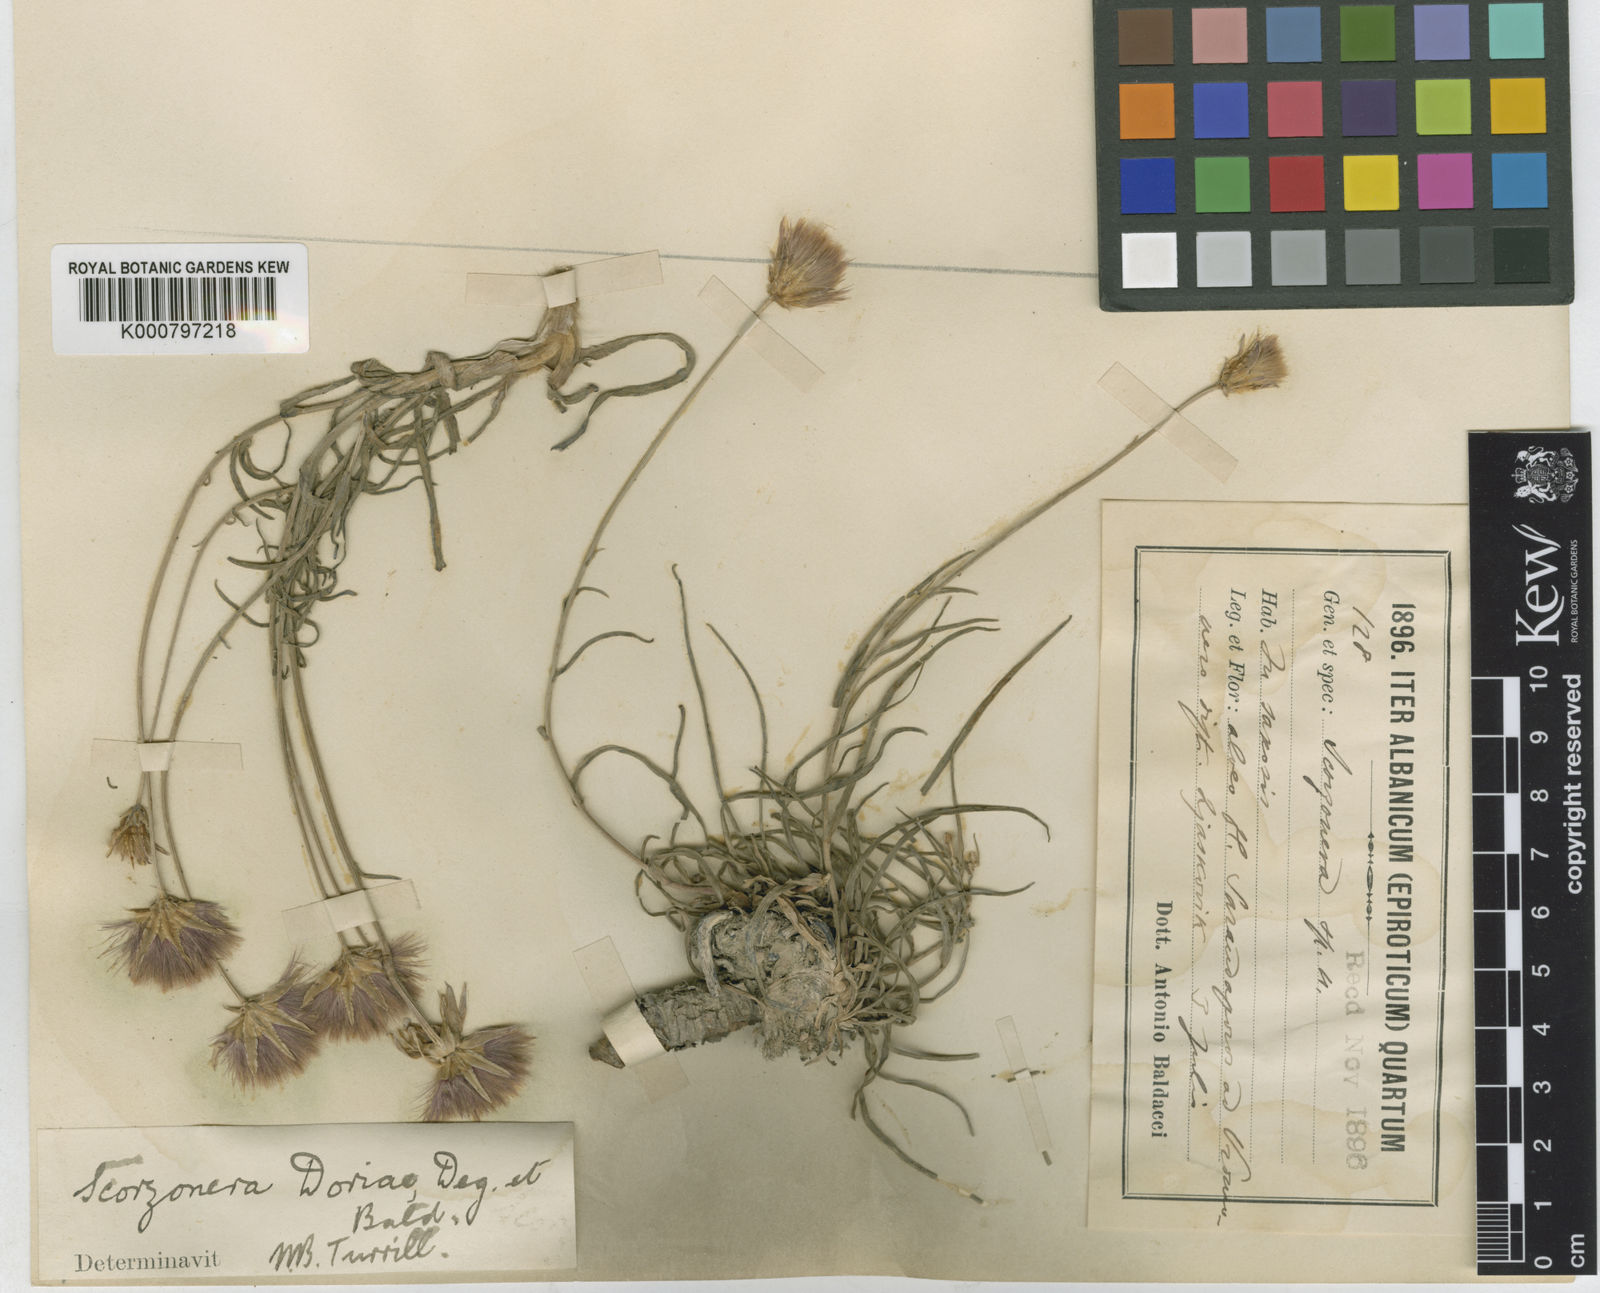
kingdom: Plantae
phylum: Tracheophyta
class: Magnoliopsida
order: Asterales
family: Asteraceae
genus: Gelasia
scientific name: Gelasia doriae
